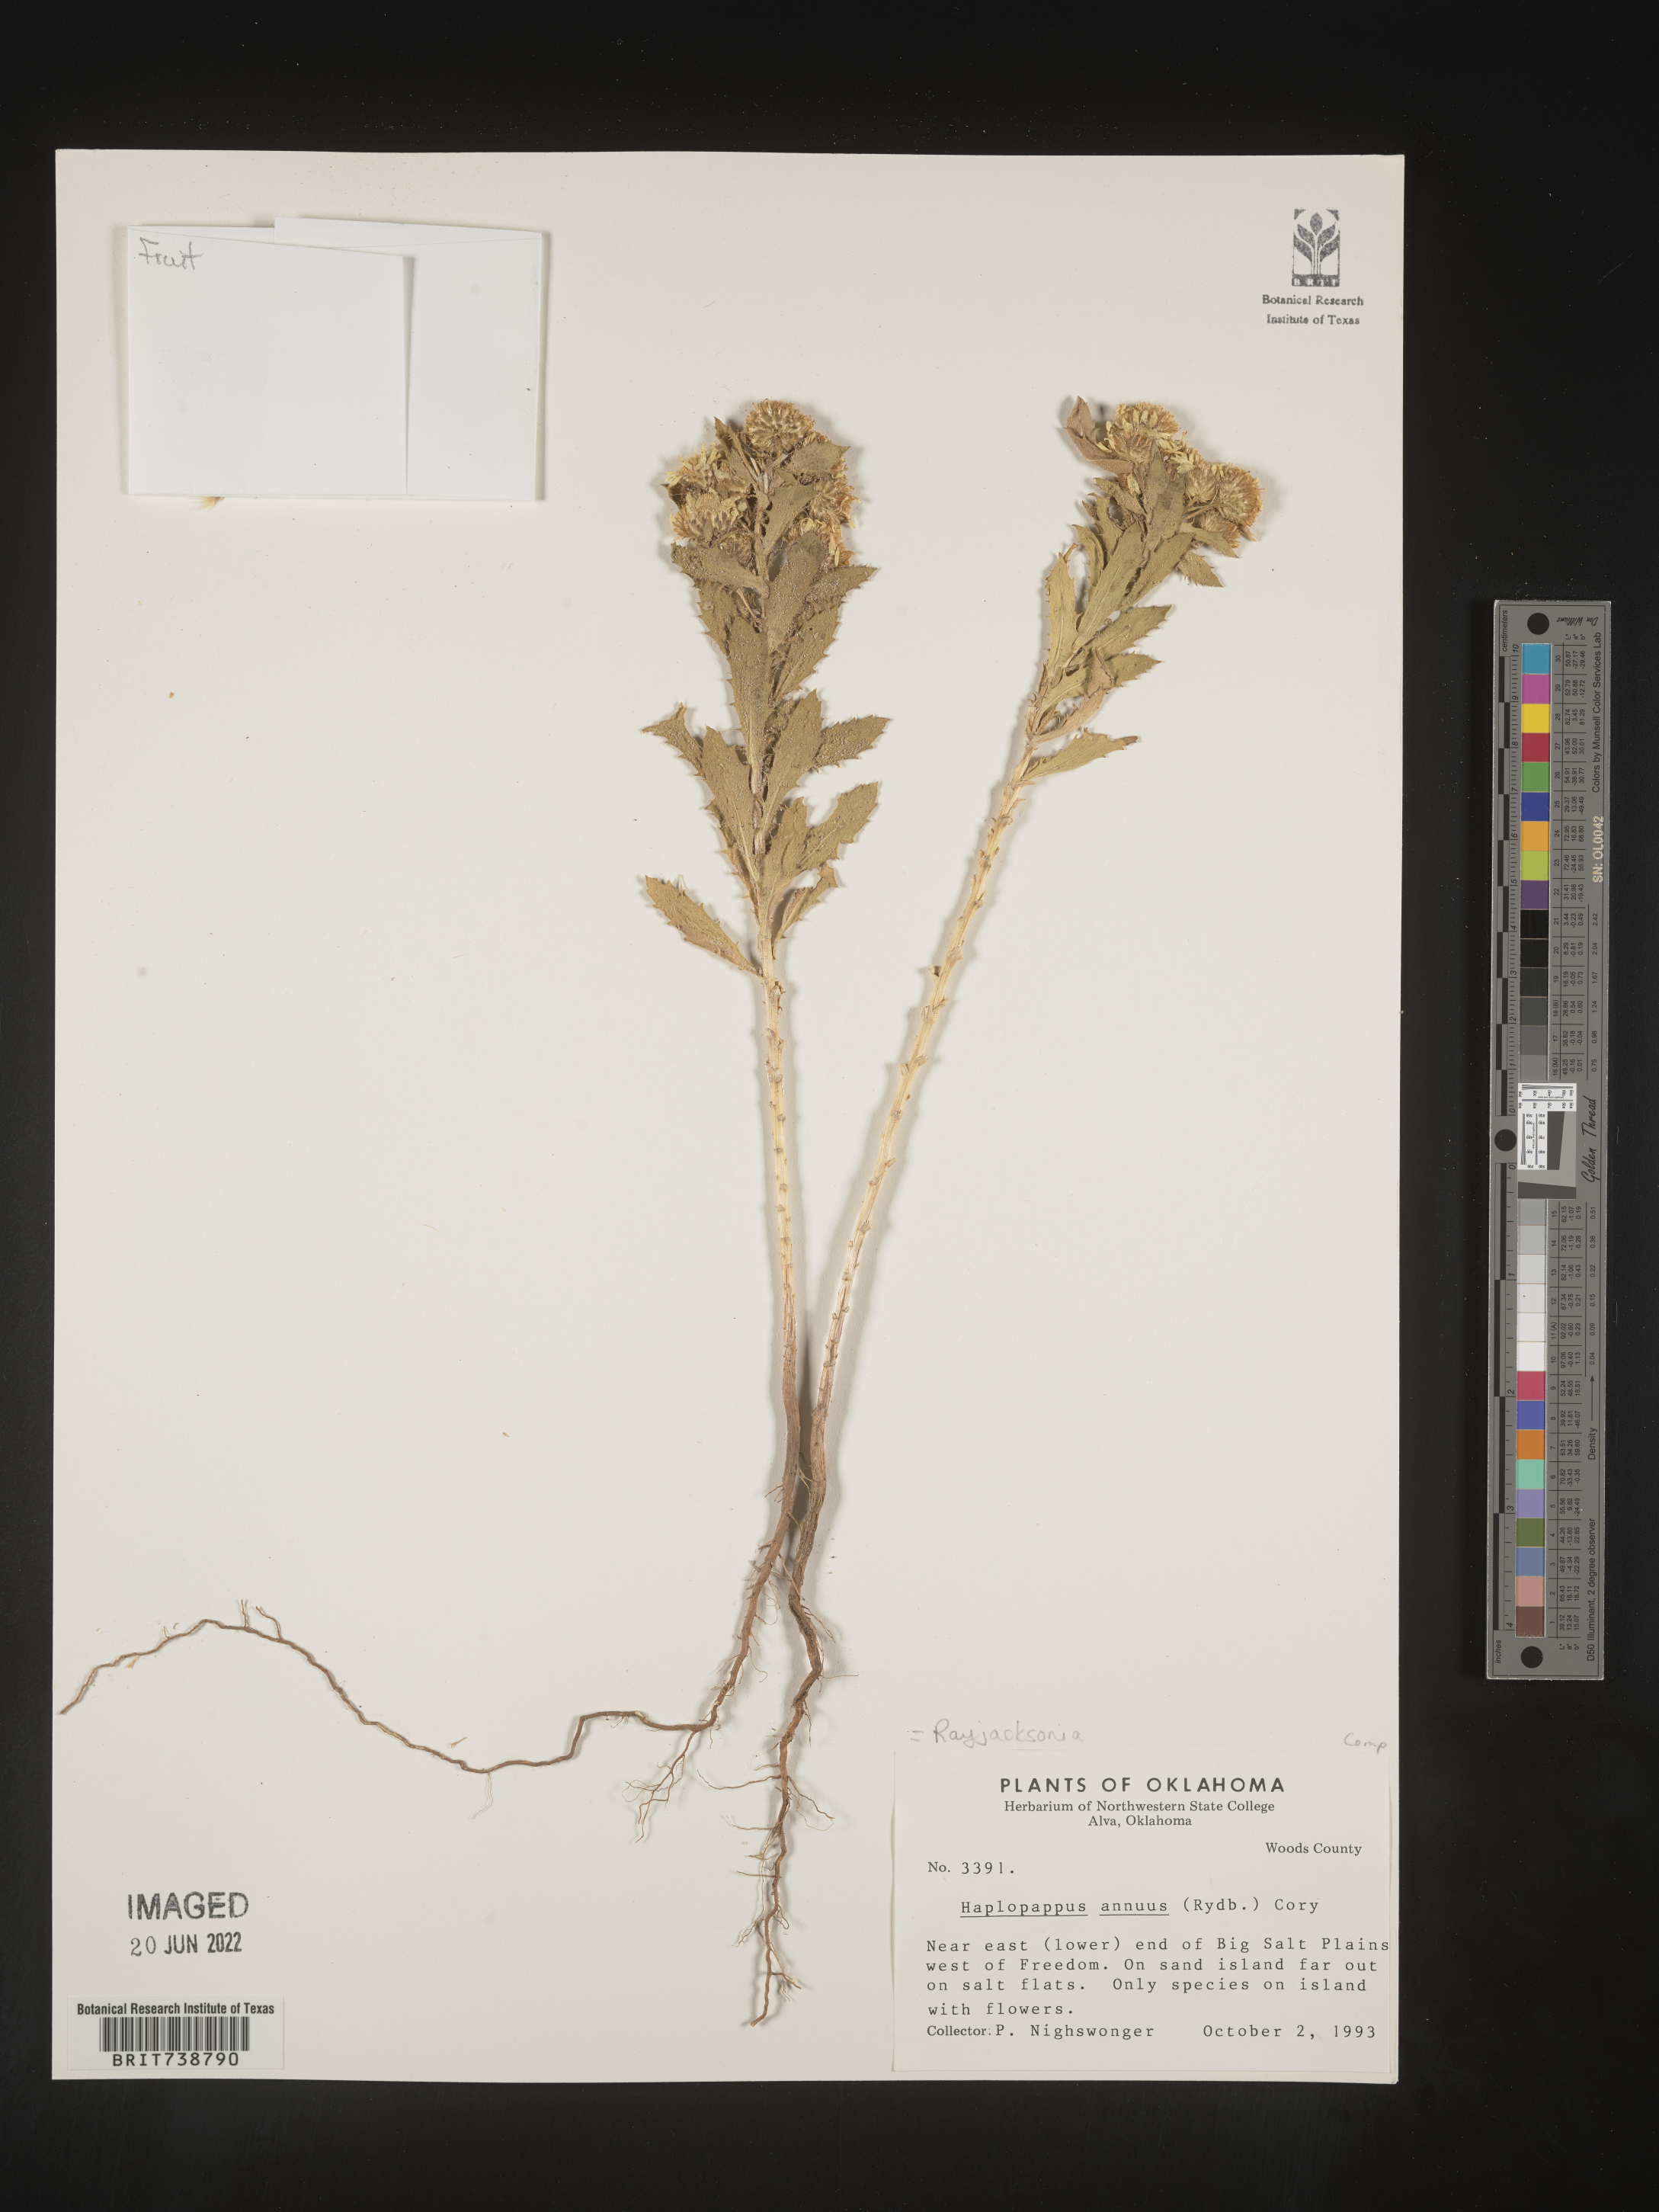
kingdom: Plantae
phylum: Tracheophyta
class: Magnoliopsida
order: Asterales
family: Asteraceae
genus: Rayjacksonia
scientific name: Rayjacksonia annua
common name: Viscid camphor daisy
